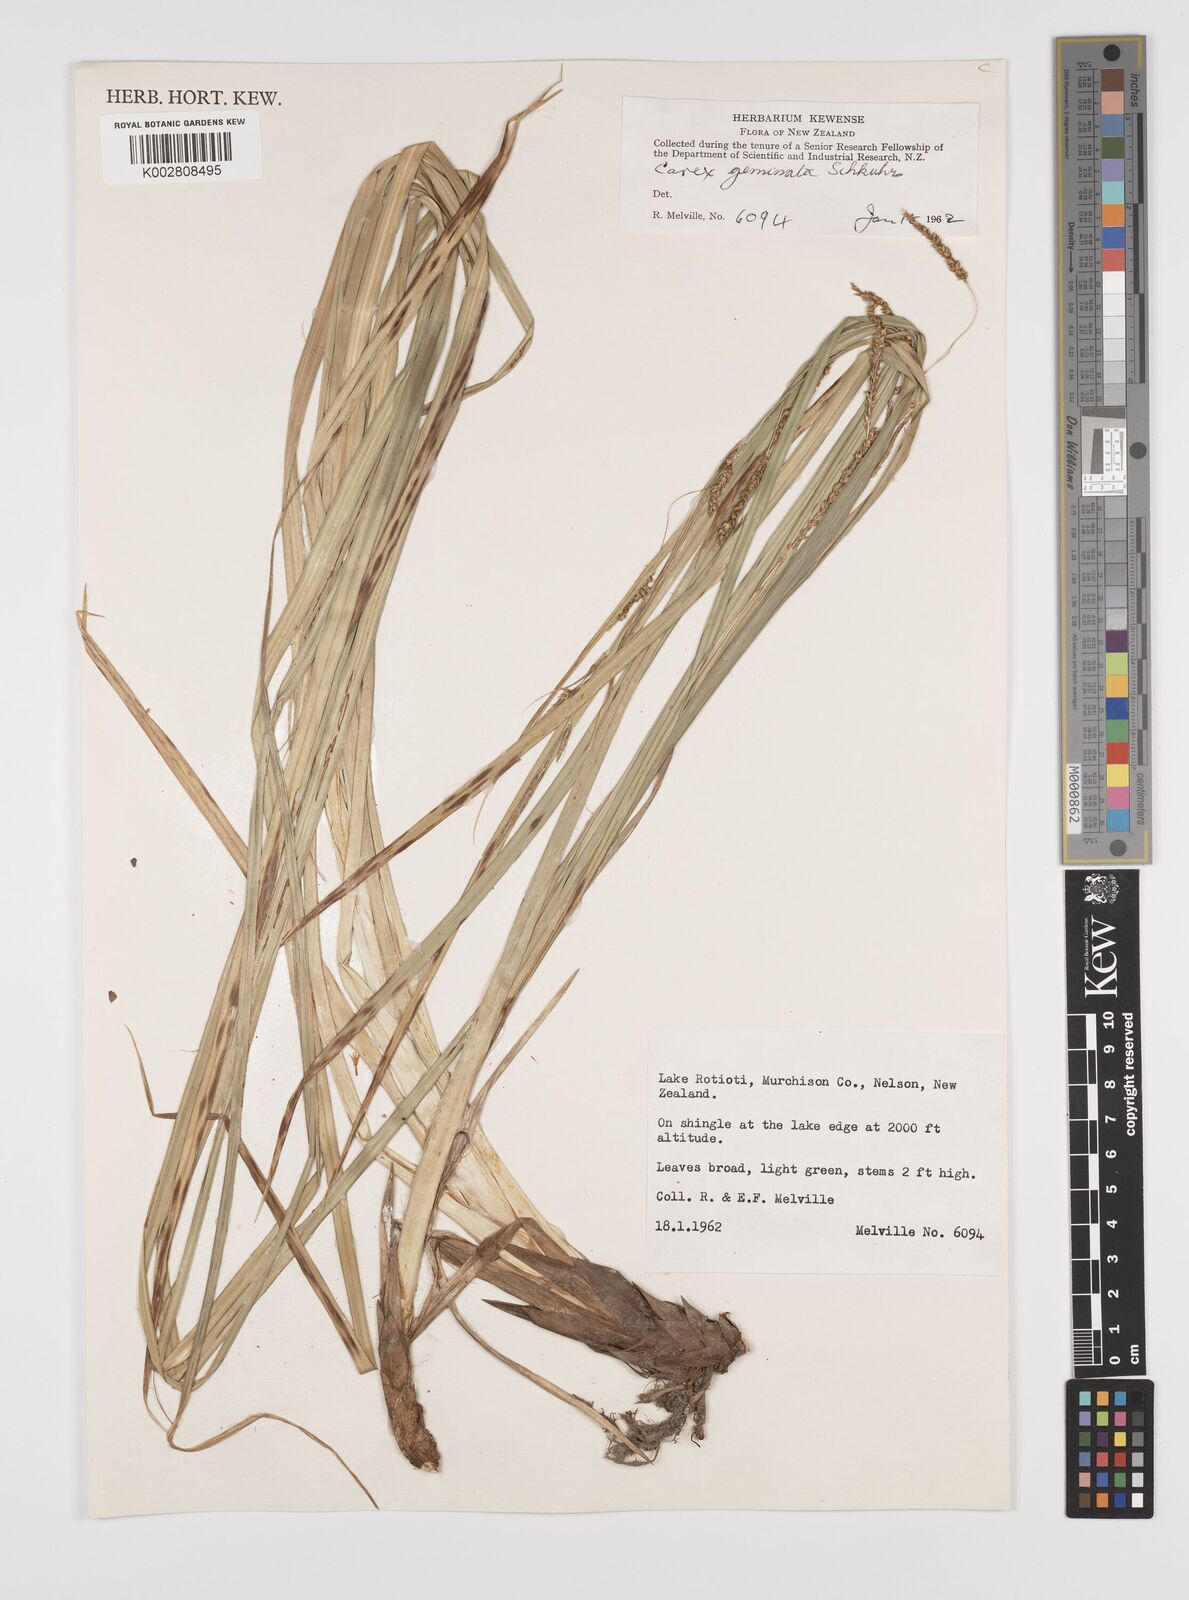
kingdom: Plantae
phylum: Tracheophyta
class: Liliopsida
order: Poales
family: Cyperaceae
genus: Carex
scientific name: Carex geminata
